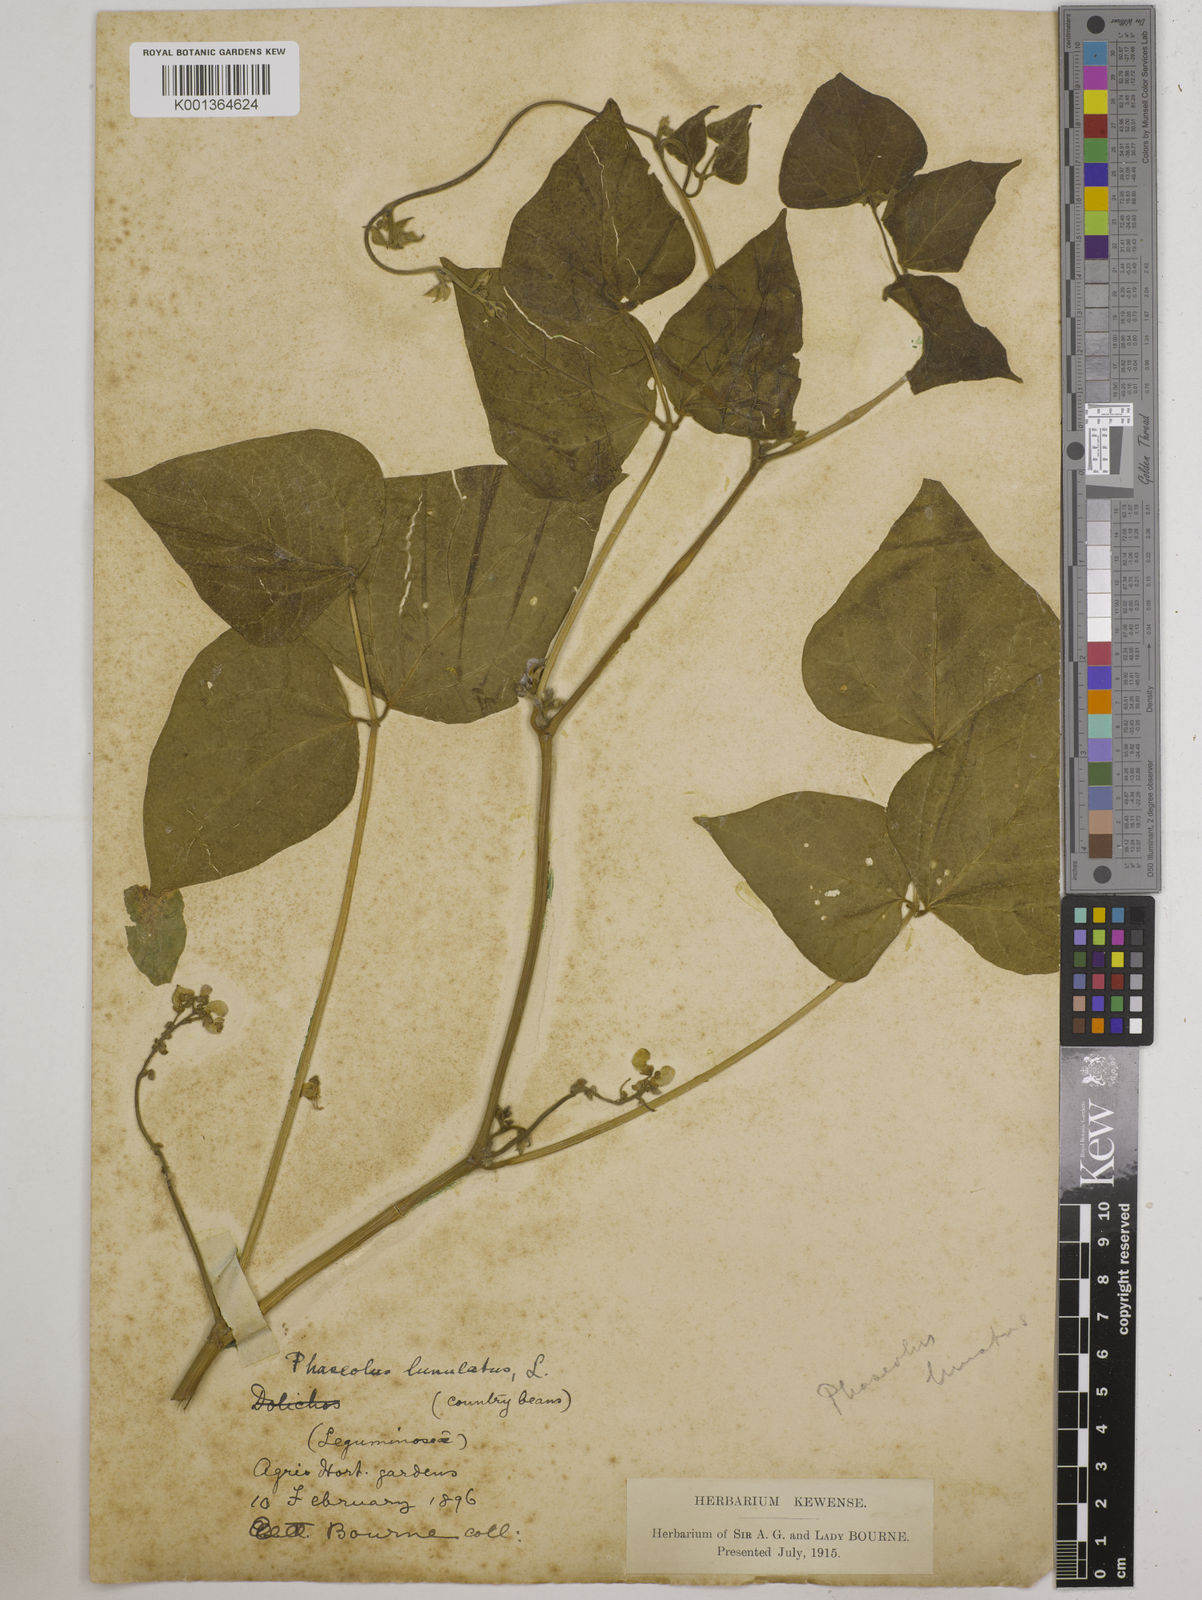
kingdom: Plantae
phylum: Tracheophyta
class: Magnoliopsida
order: Fabales
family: Fabaceae
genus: Phaseolus
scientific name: Phaseolus lunatus
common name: Sieva bean
